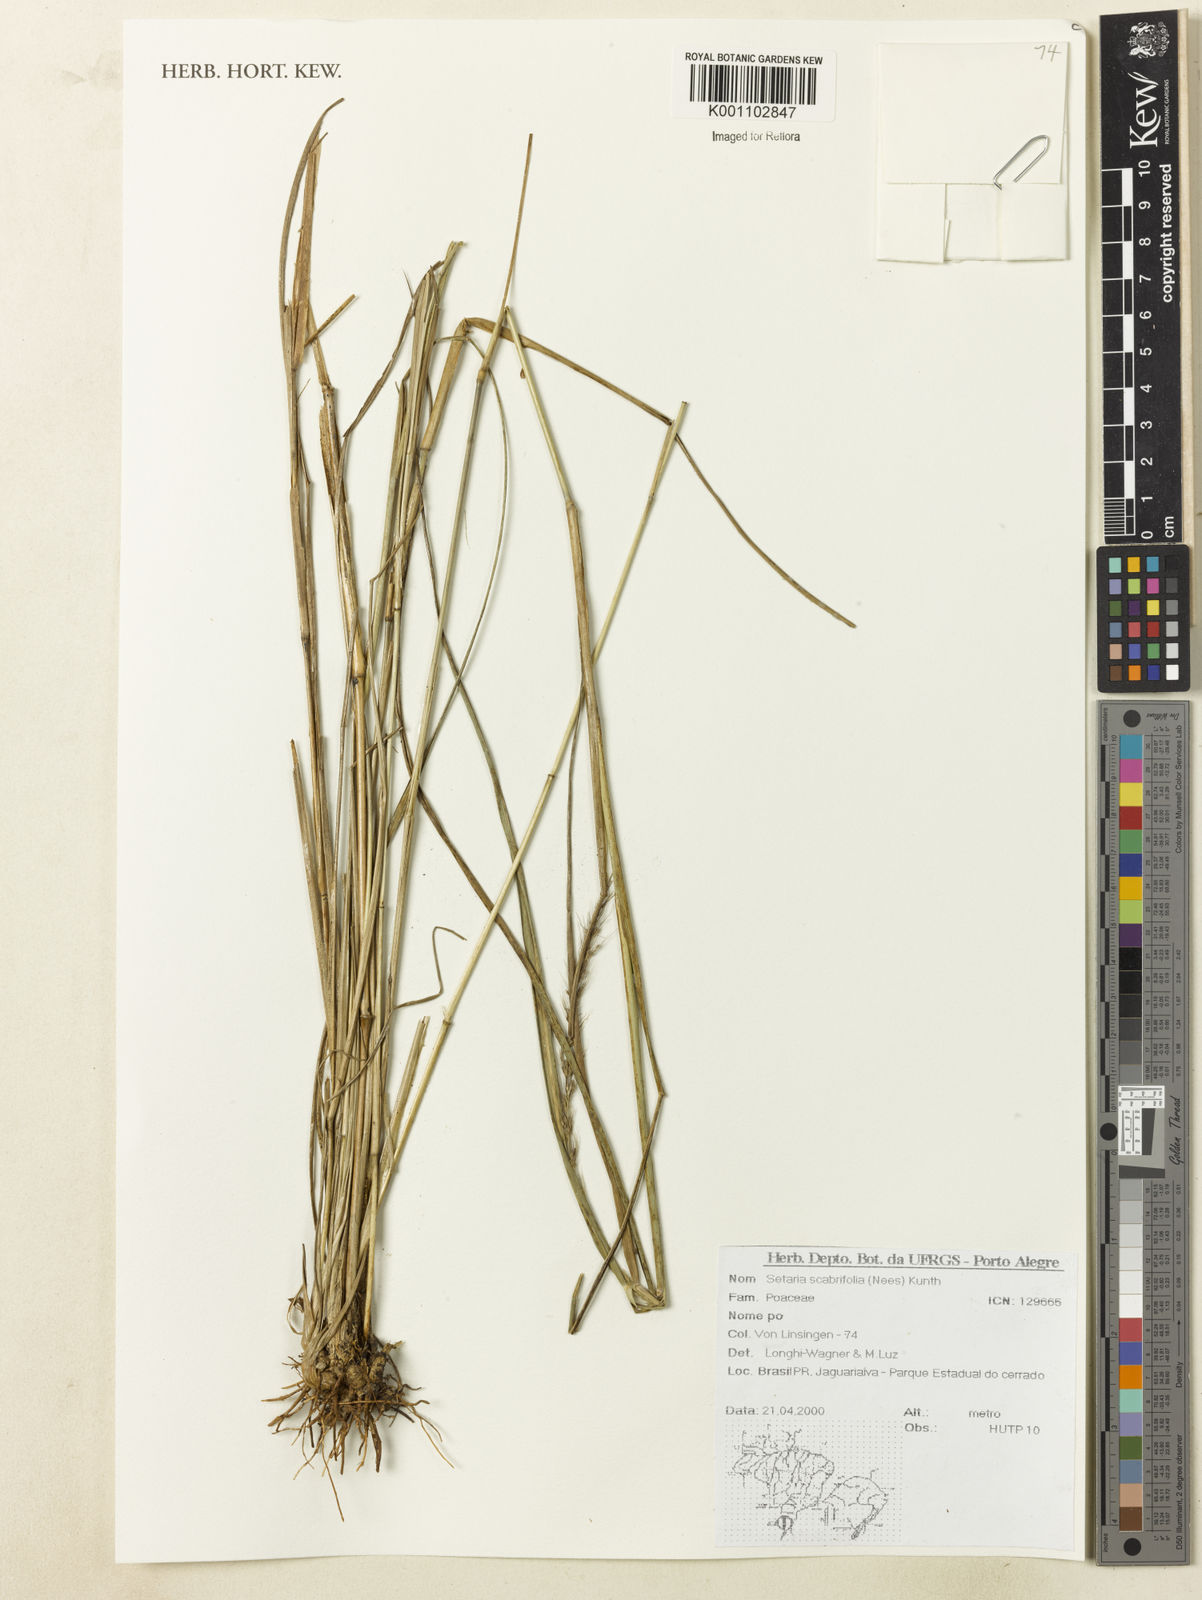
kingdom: Plantae
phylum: Tracheophyta
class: Liliopsida
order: Poales
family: Poaceae
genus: Setaria
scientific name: Setaria scabrifolia
